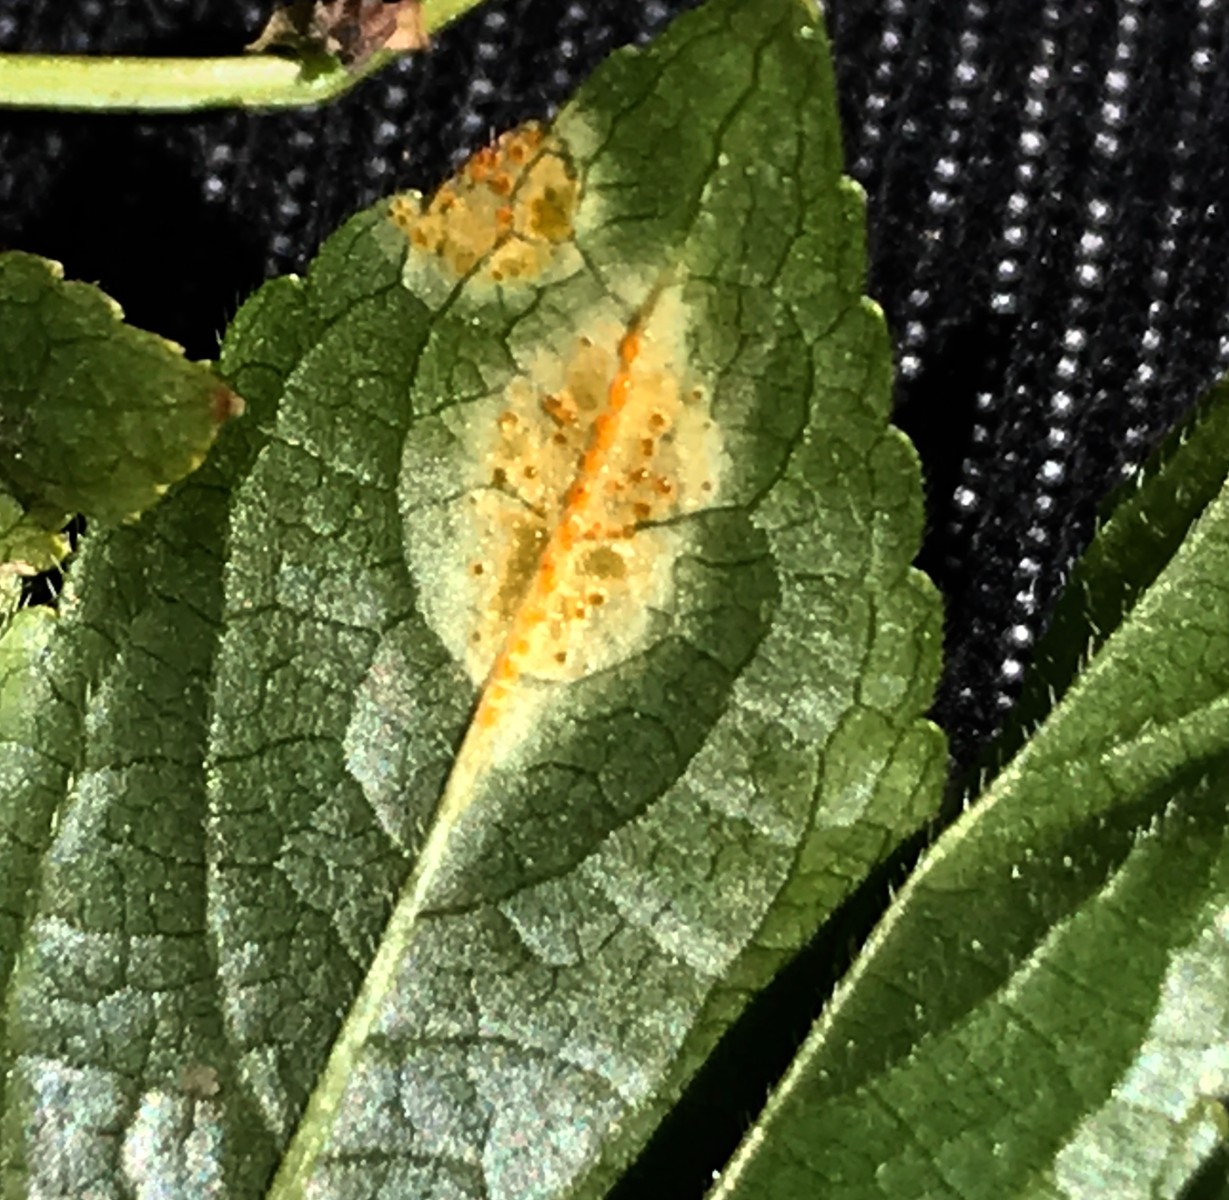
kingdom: Fungi
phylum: Basidiomycota
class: Pucciniomycetes
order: Pucciniales
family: Melampsoraceae
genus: Melampsora
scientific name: Melampsora populnea
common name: poppel-skorperust
